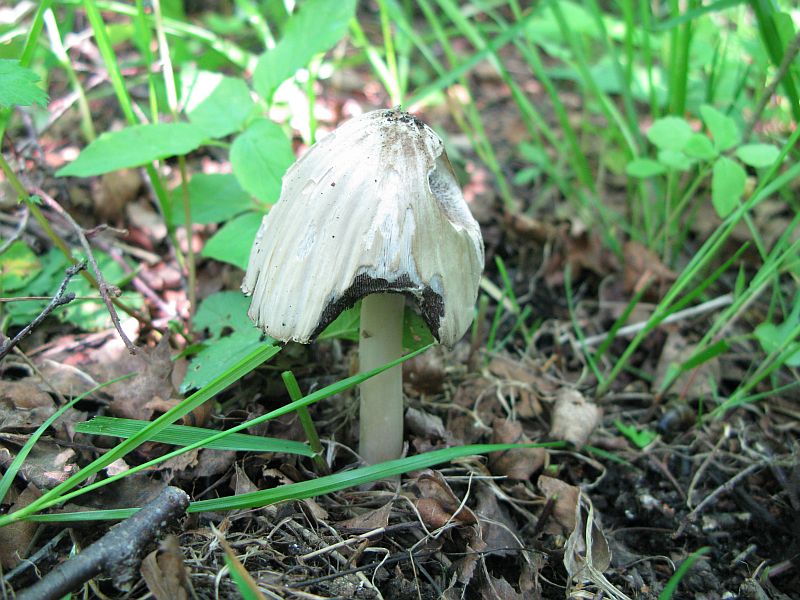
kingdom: Fungi
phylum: Basidiomycota
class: Agaricomycetes
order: Agaricales
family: Psathyrellaceae
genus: Coprinopsis
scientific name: Coprinopsis atramentaria
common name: almindelig blækhat
